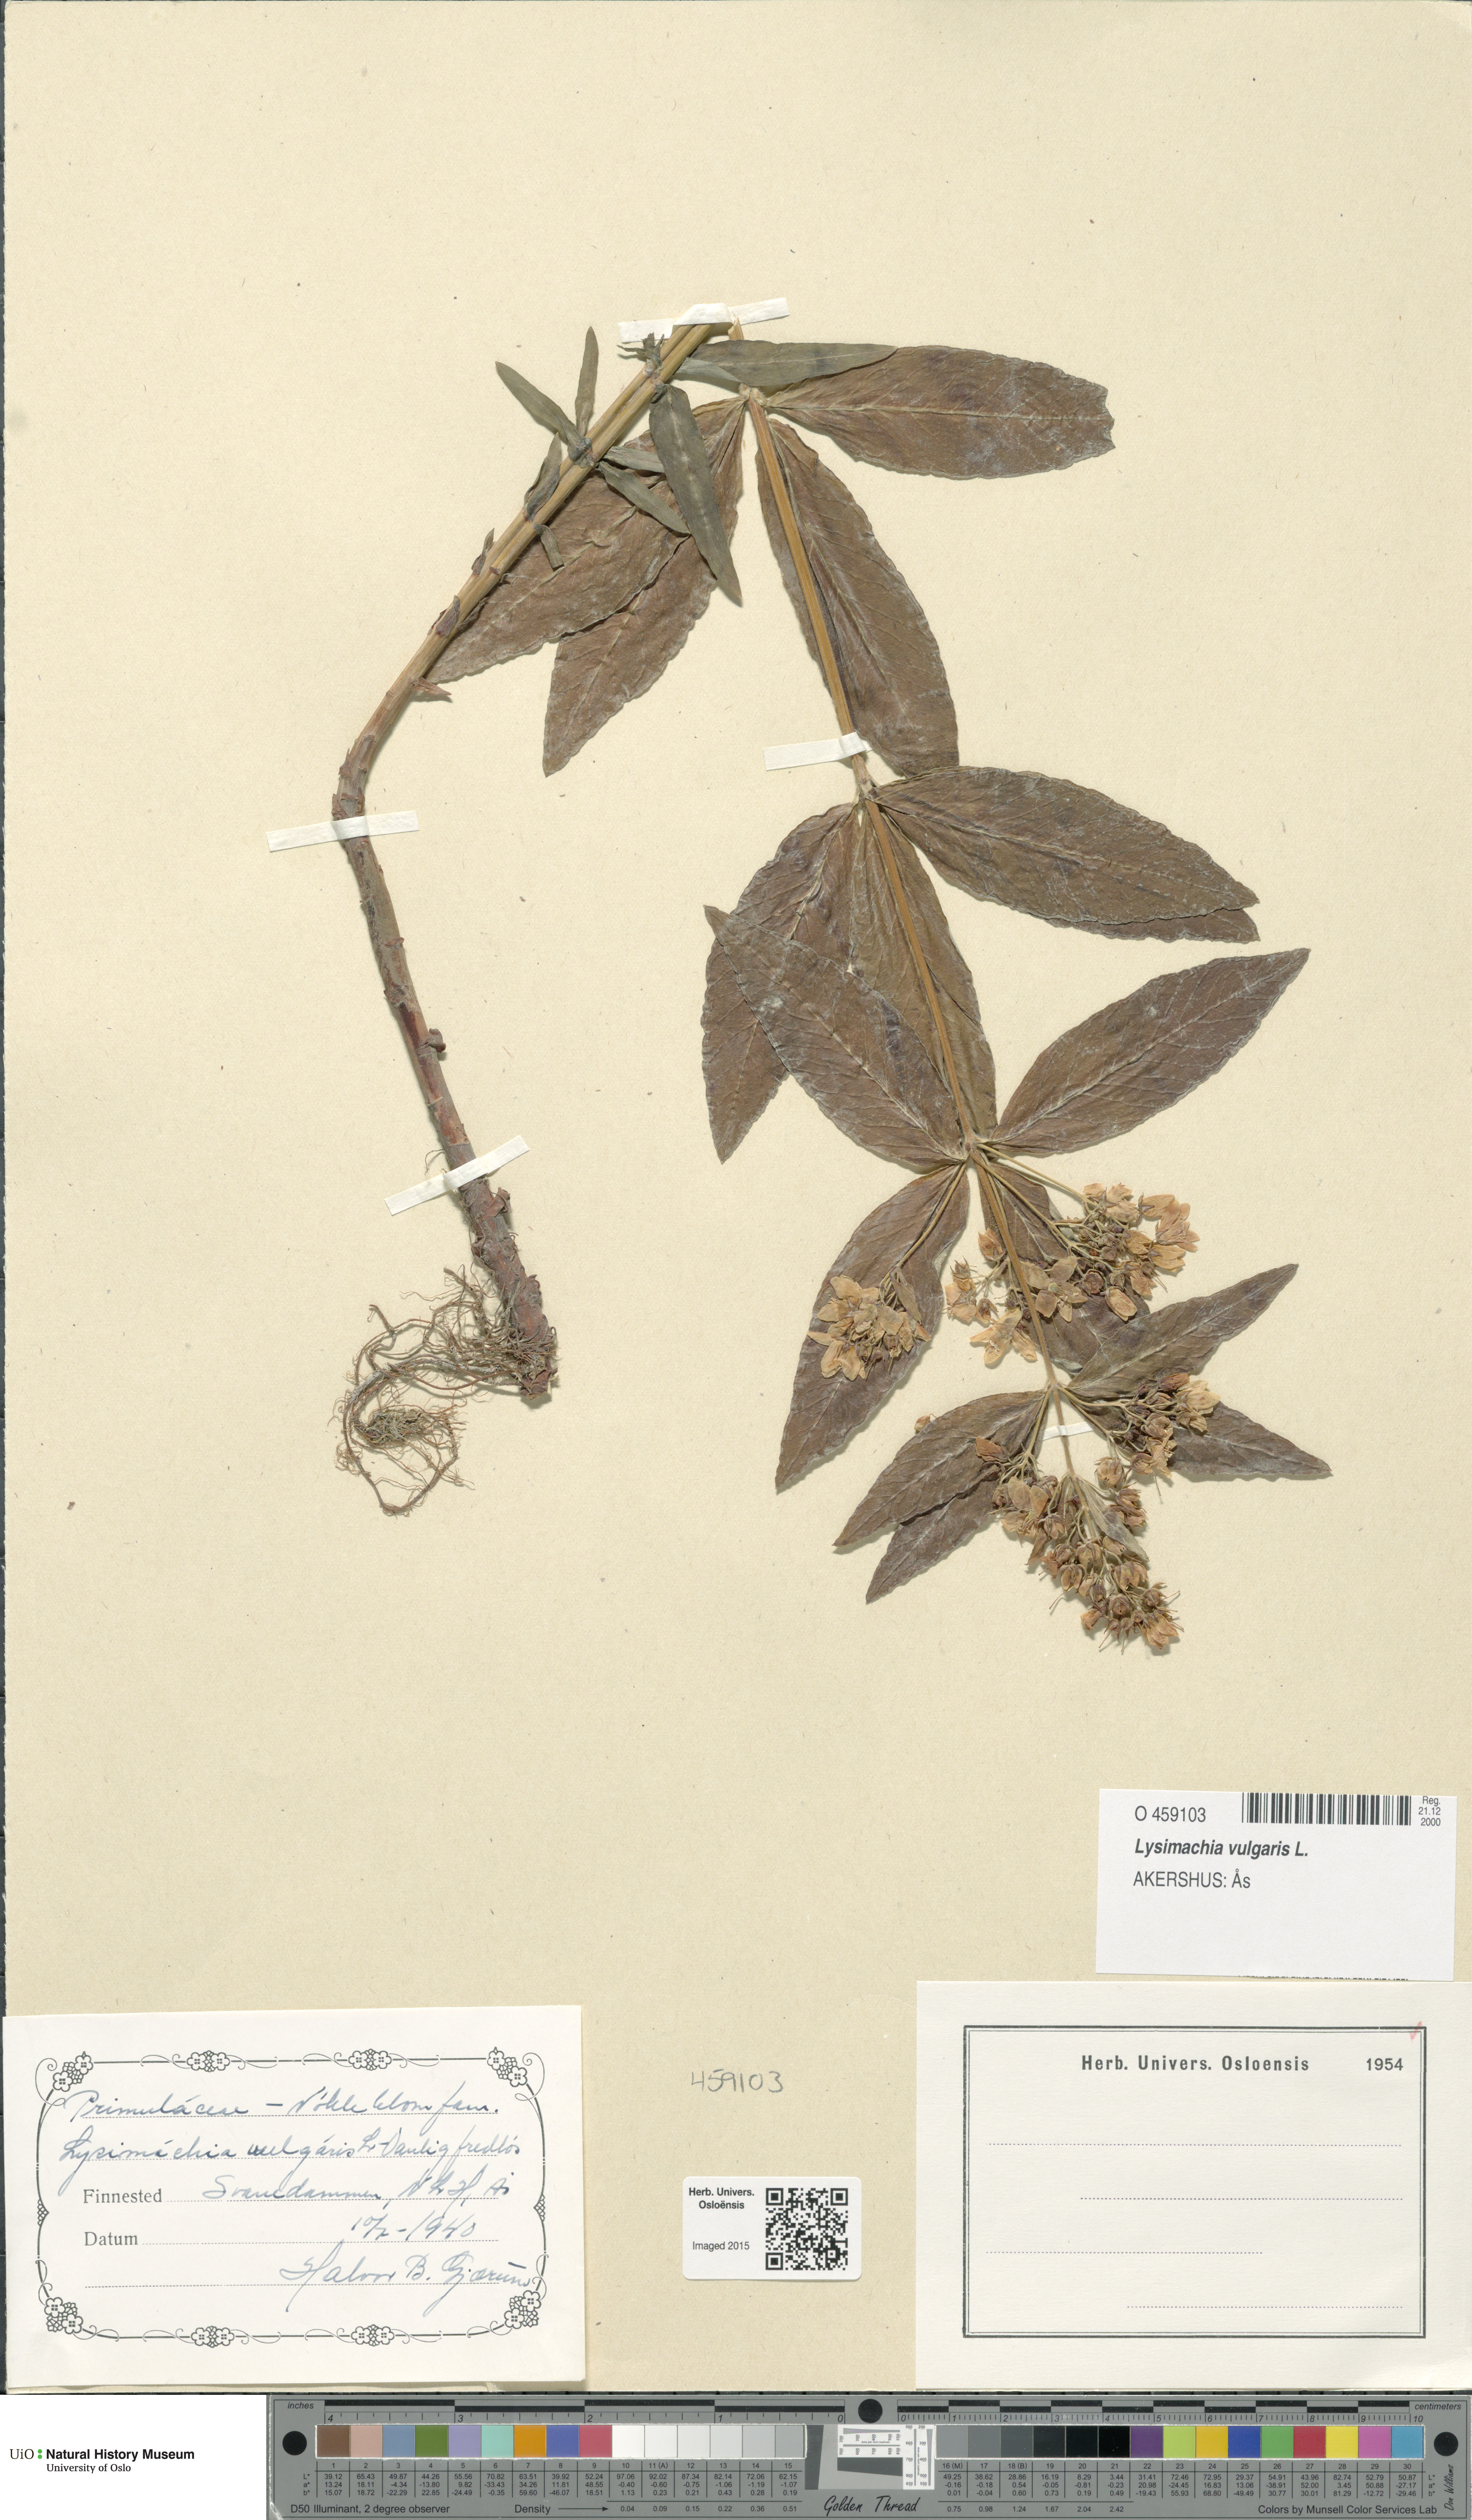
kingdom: Plantae
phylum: Tracheophyta
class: Magnoliopsida
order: Ericales
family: Primulaceae
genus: Lysimachia
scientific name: Lysimachia vulgaris
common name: Yellow loosestrife
